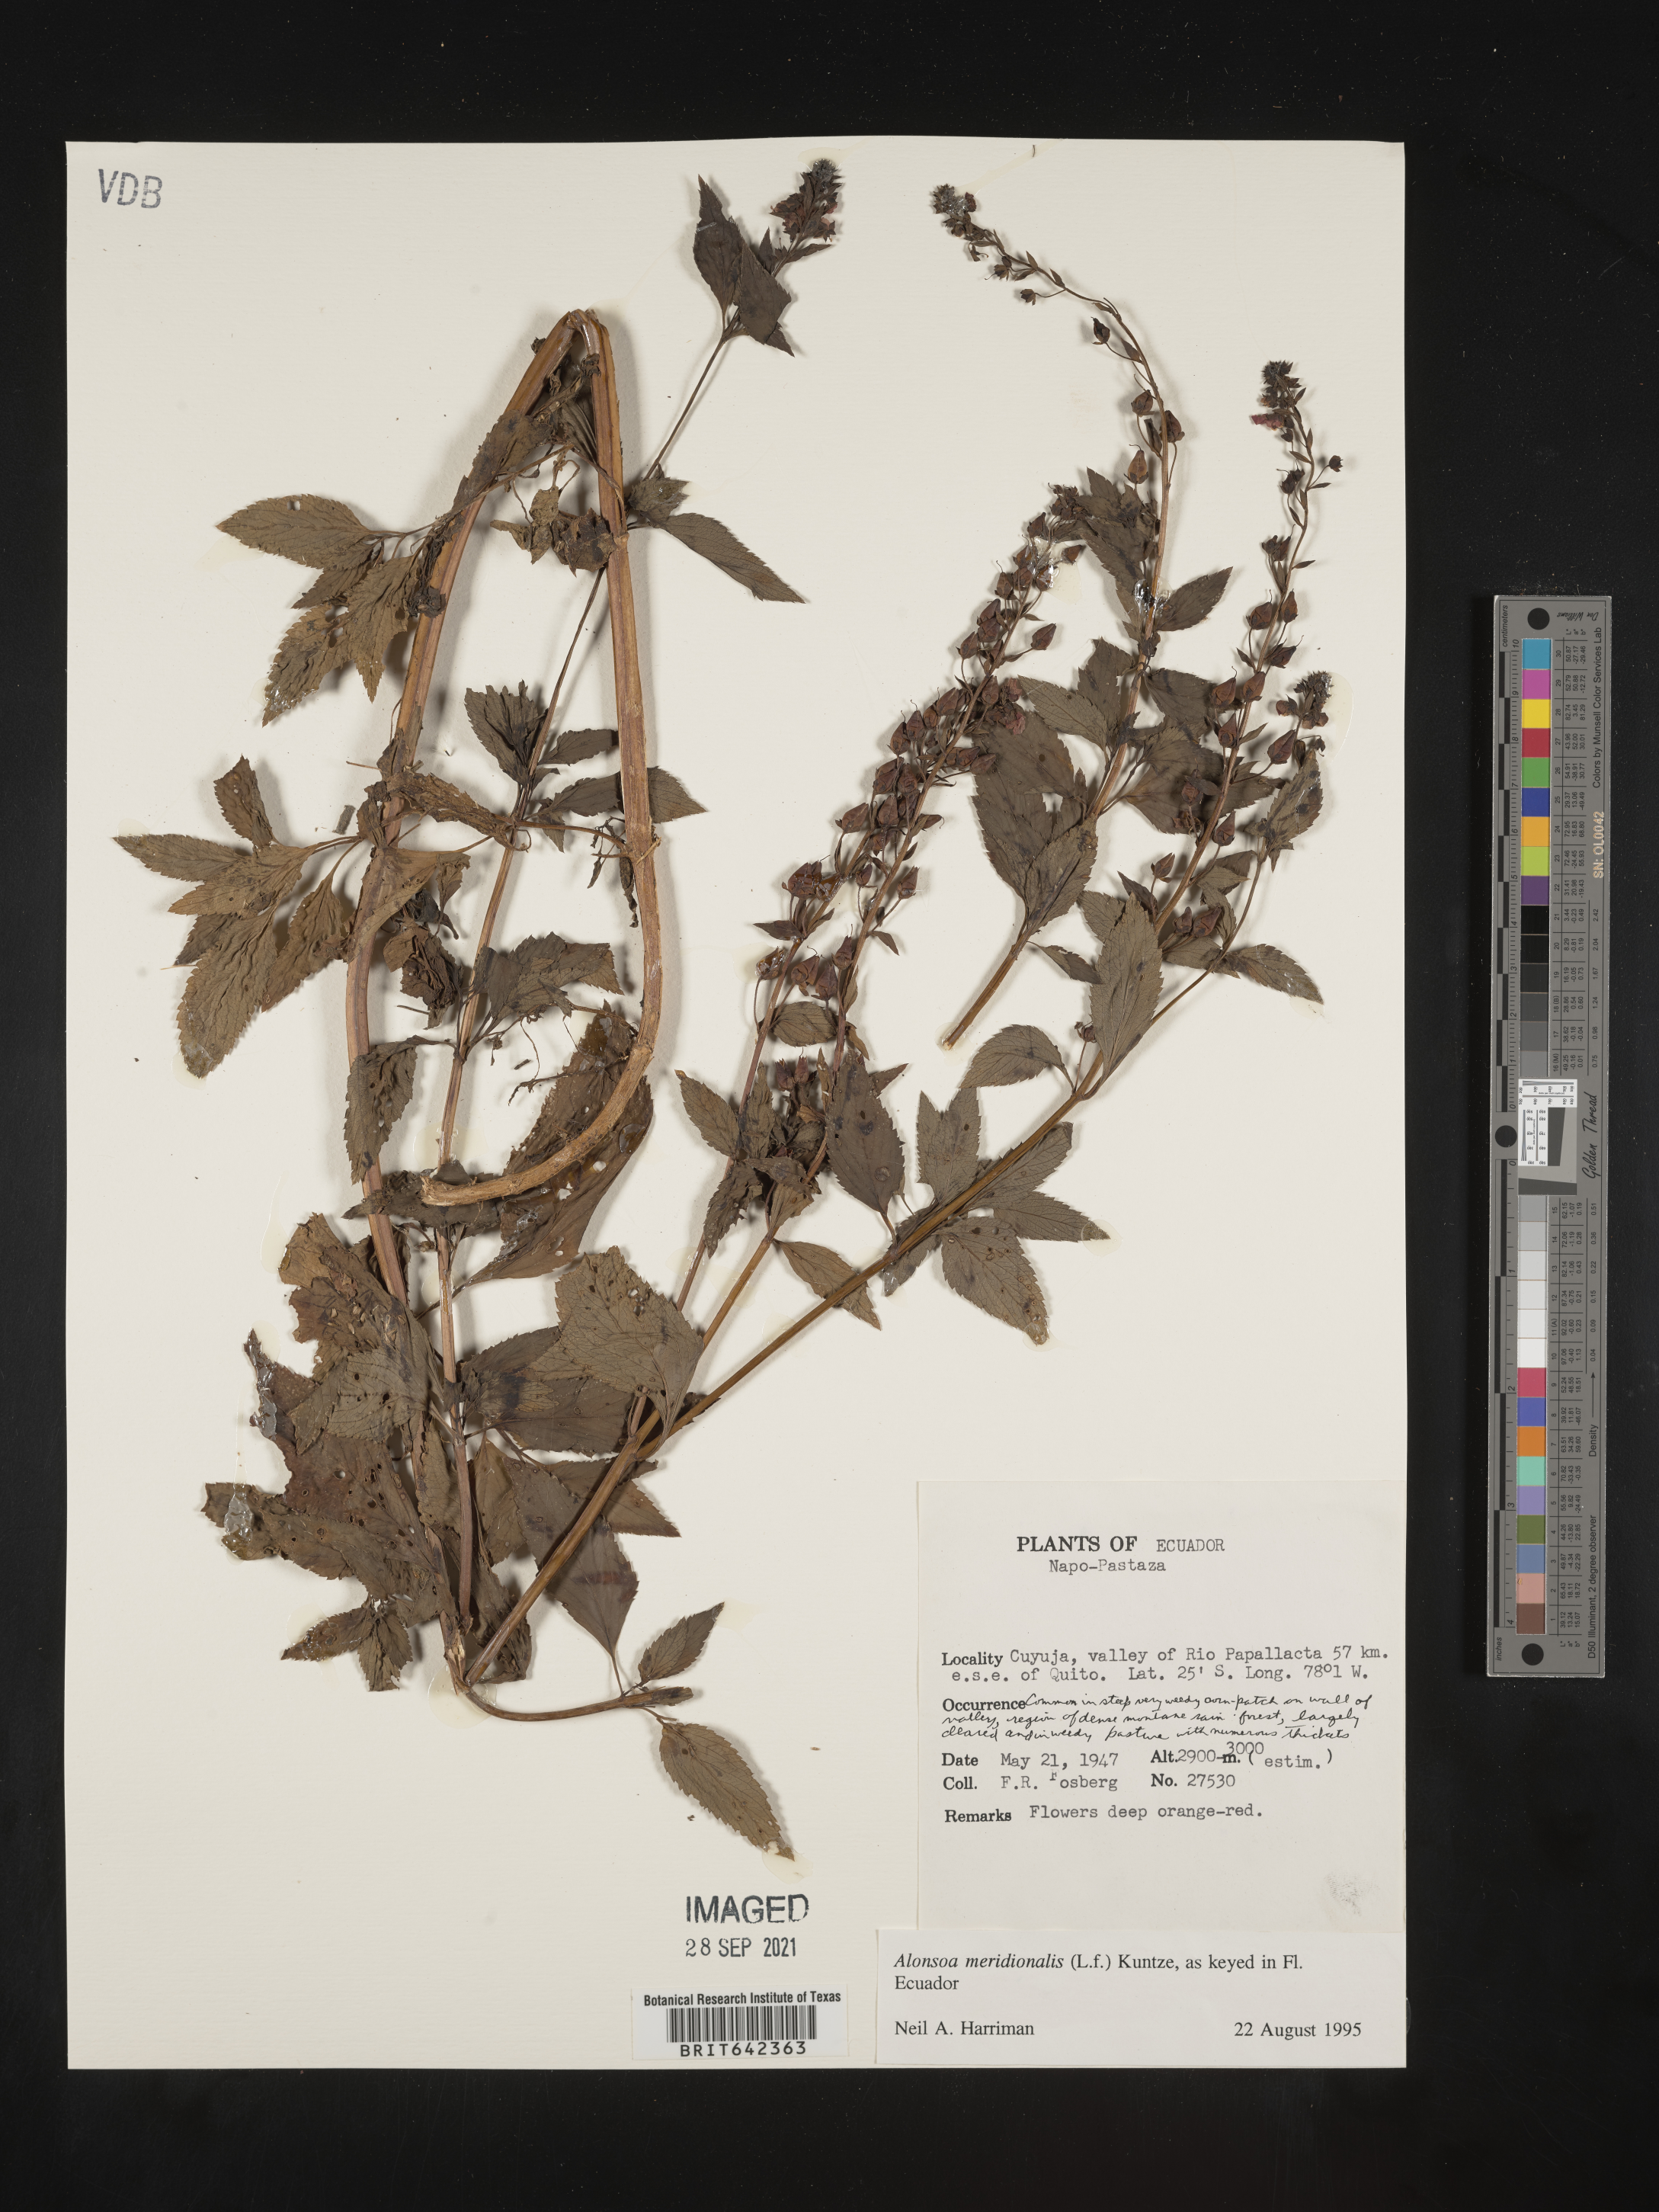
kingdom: Plantae
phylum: Tracheophyta
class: Magnoliopsida
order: Lamiales
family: Scrophulariaceae
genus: Alonsoa
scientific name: Alonsoa
